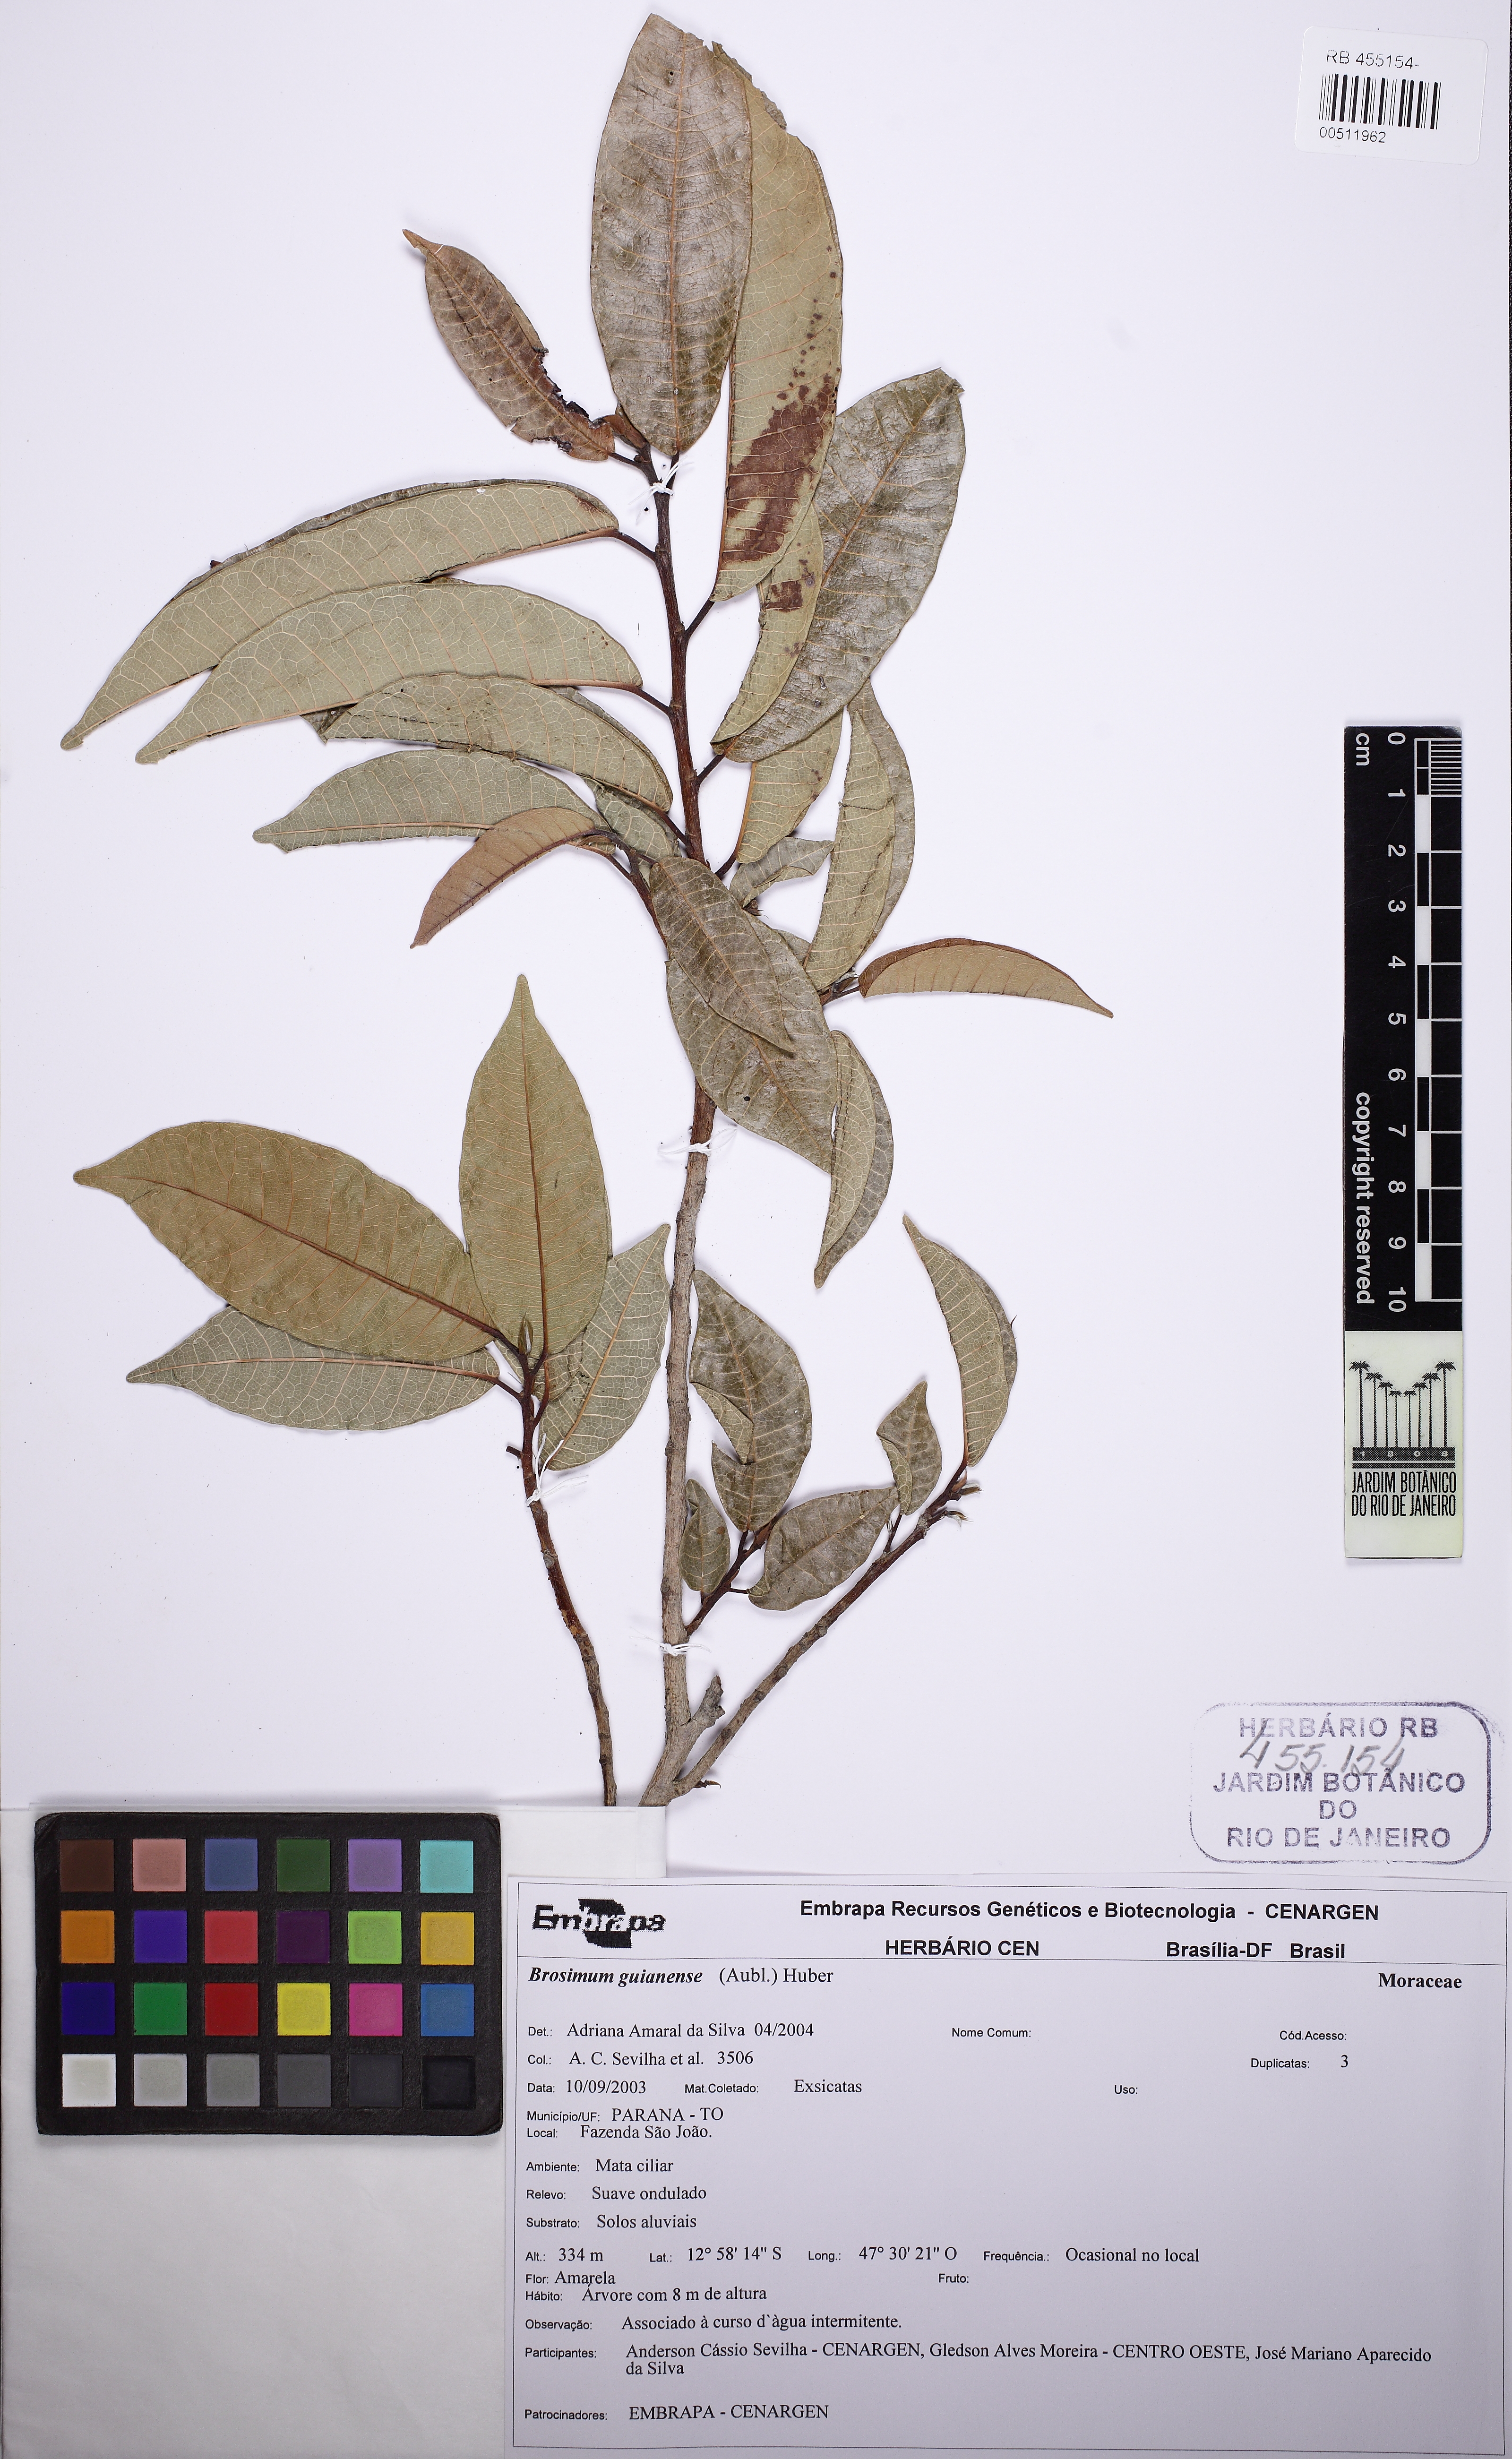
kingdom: Plantae
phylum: Tracheophyta
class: Magnoliopsida
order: Rosales
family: Moraceae
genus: Brosimum
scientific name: Brosimum guianense
